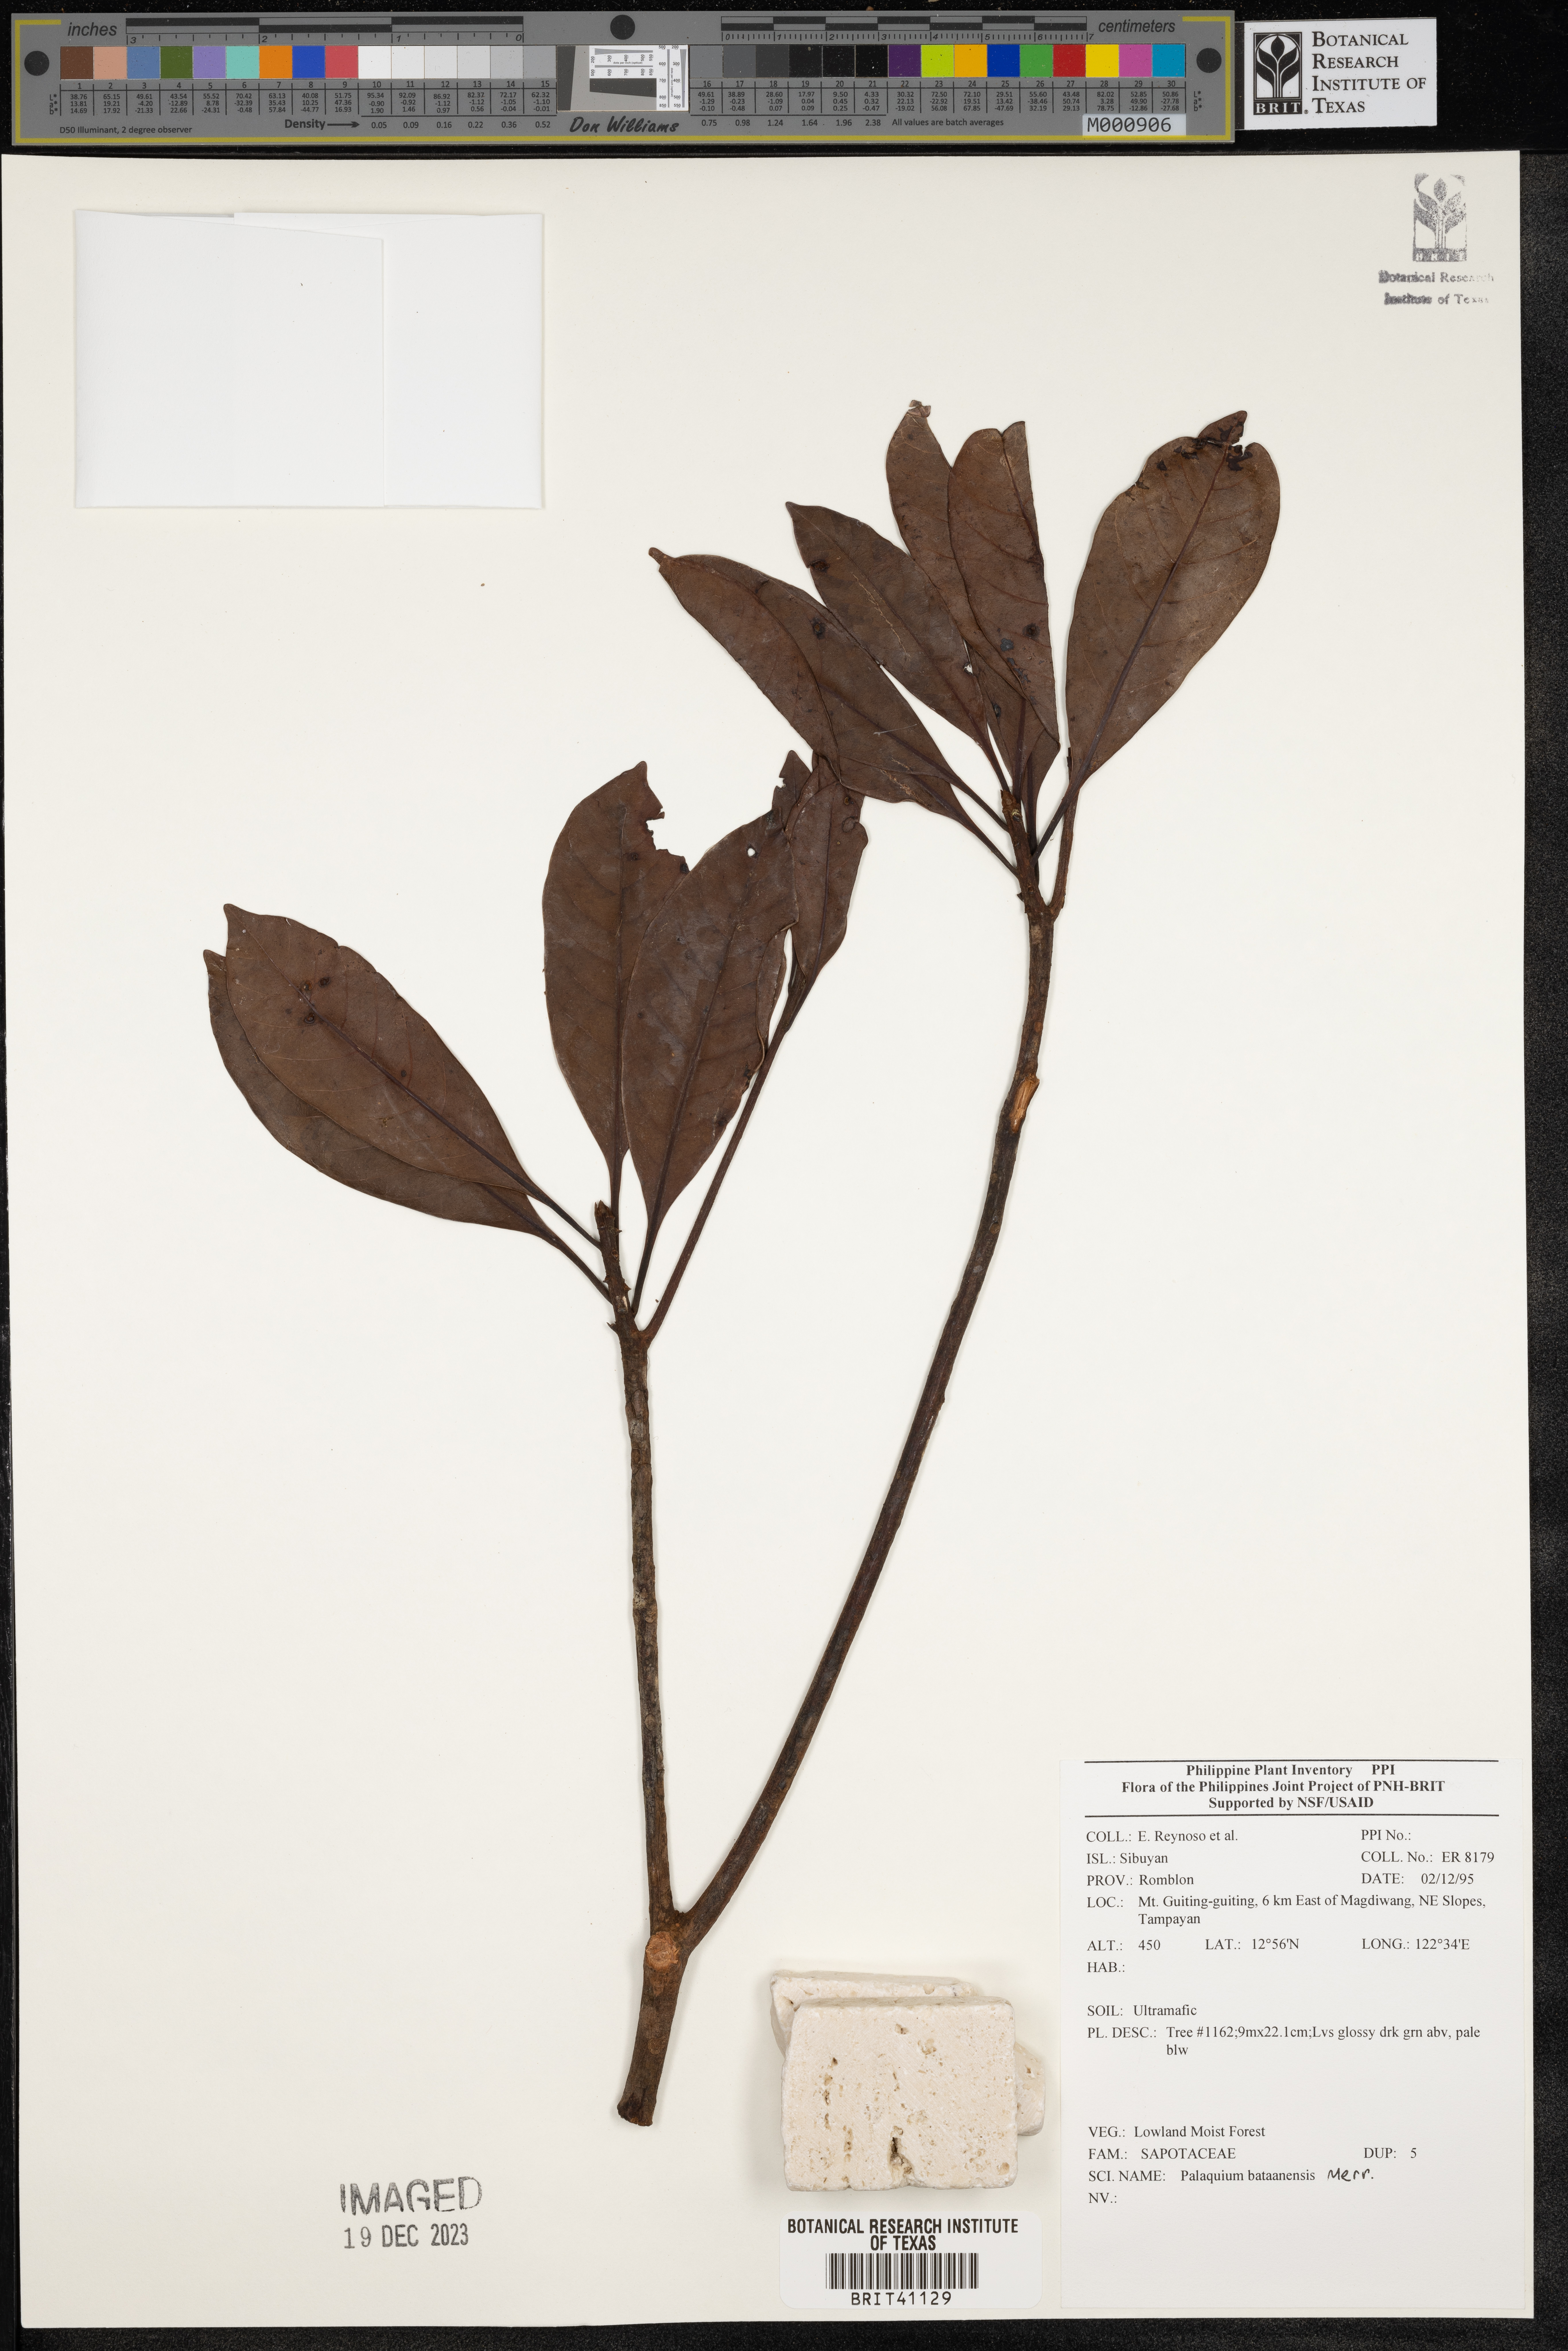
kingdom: Plantae
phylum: Tracheophyta
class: Magnoliopsida
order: Ericales
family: Sapotaceae
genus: Palaquium
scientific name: Palaquium bataanense
